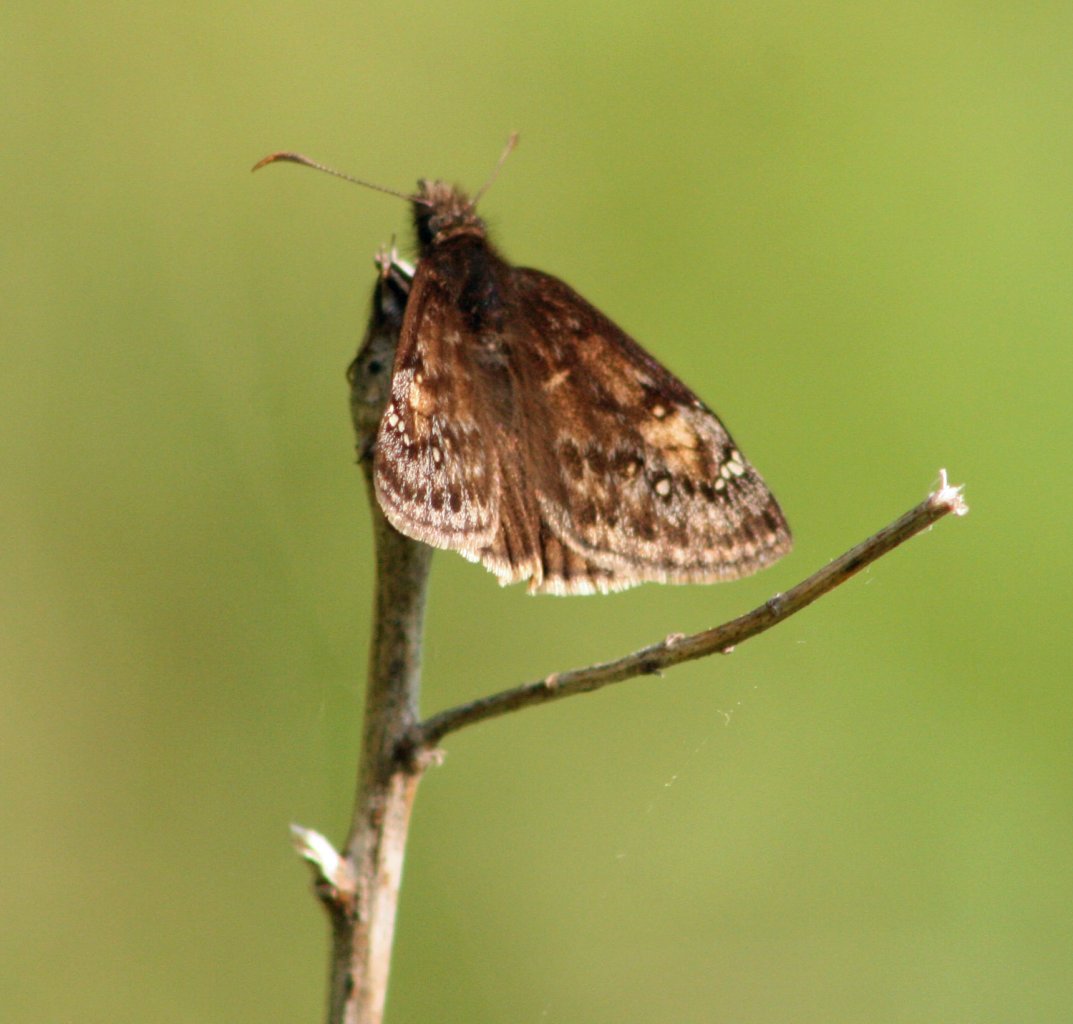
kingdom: Animalia
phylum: Arthropoda
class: Insecta
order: Lepidoptera
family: Hesperiidae
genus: Gesta
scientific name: Gesta
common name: Juvenal's Duskywing
